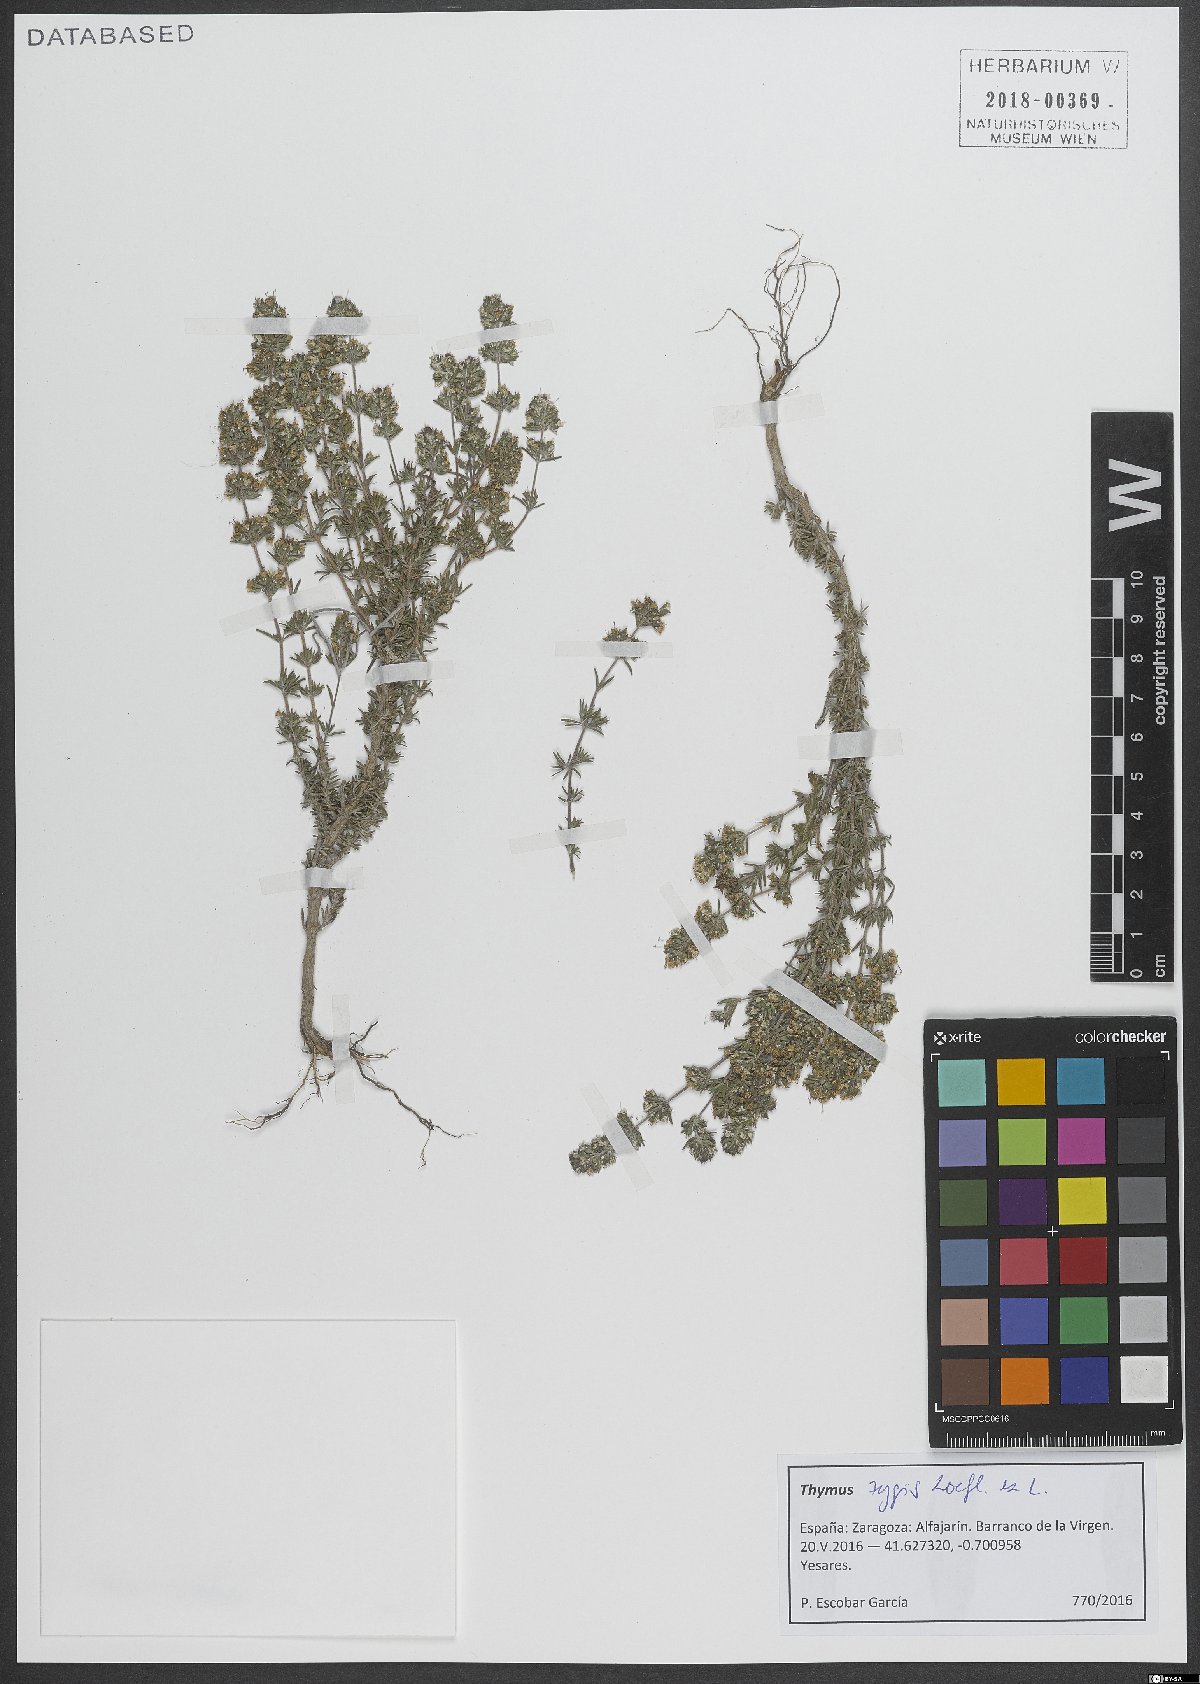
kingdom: Plantae
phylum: Tracheophyta
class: Magnoliopsida
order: Lamiales
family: Lamiaceae
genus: Thymus
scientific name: Thymus zygis
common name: White thyme
